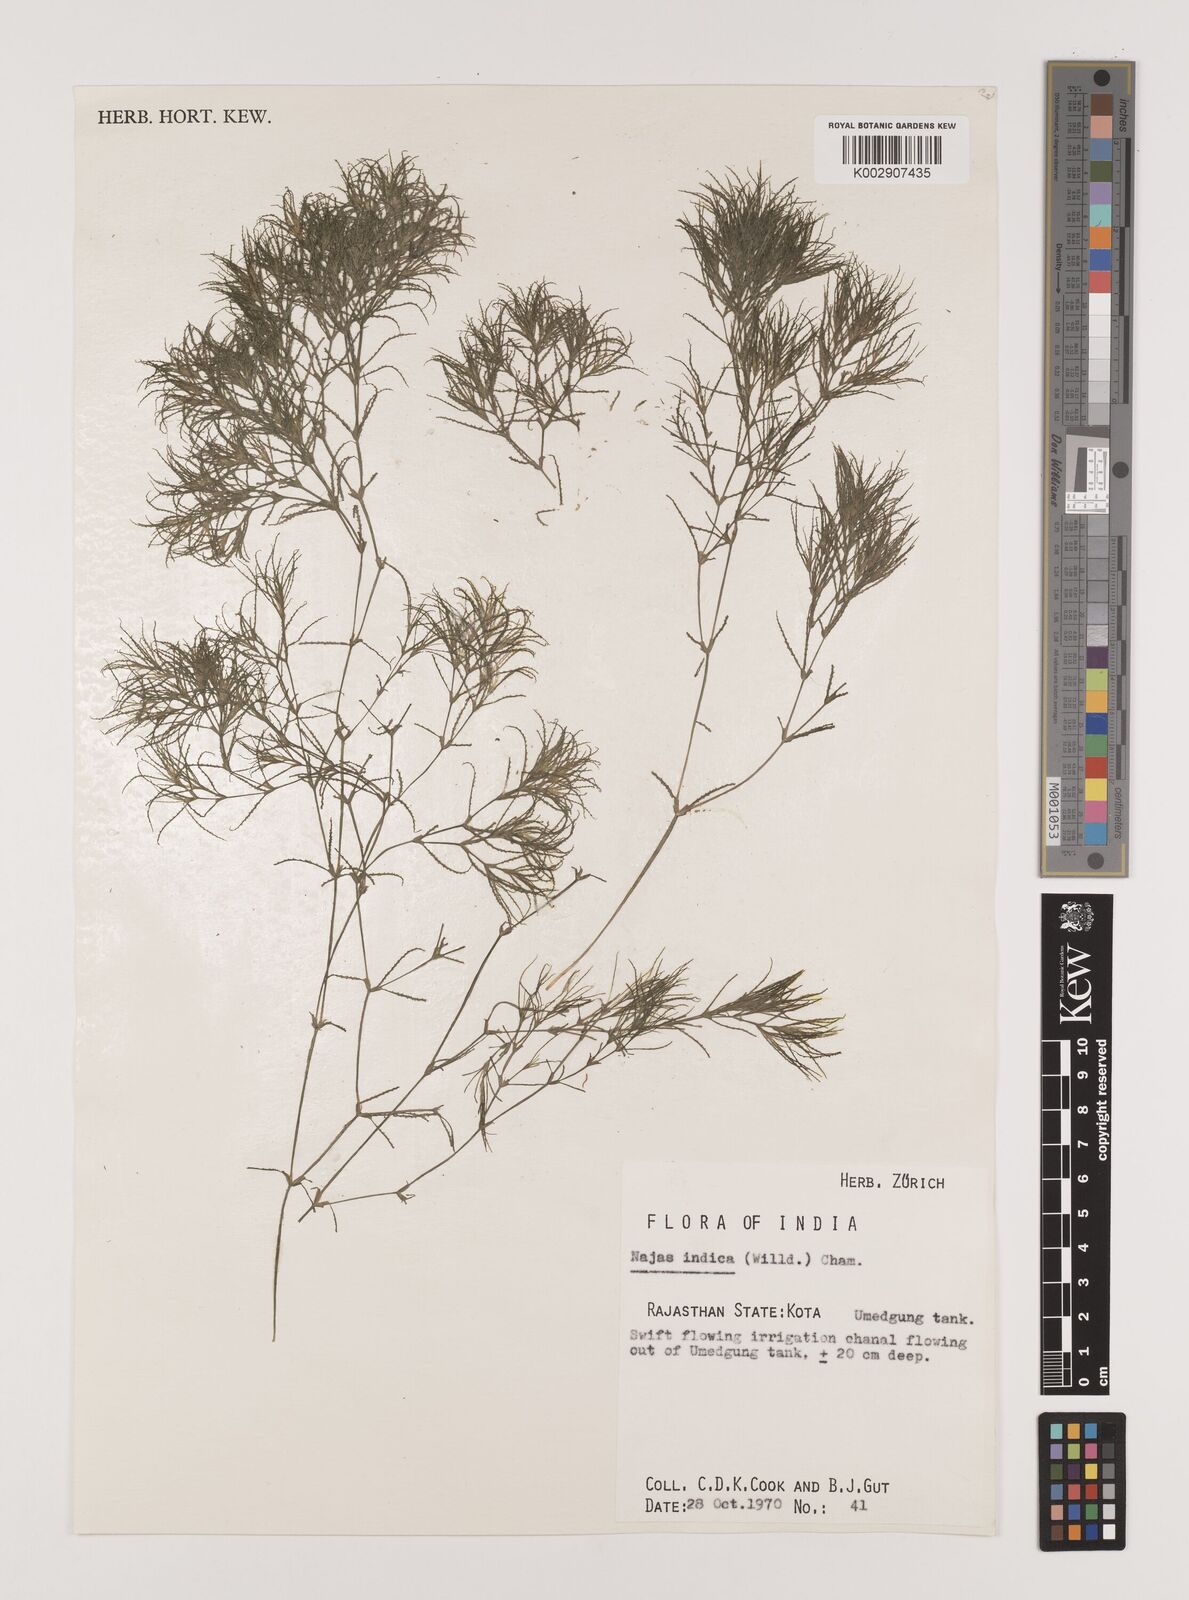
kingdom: Plantae
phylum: Tracheophyta
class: Liliopsida
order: Alismatales
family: Hydrocharitaceae
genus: Najas
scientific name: Najas indica
